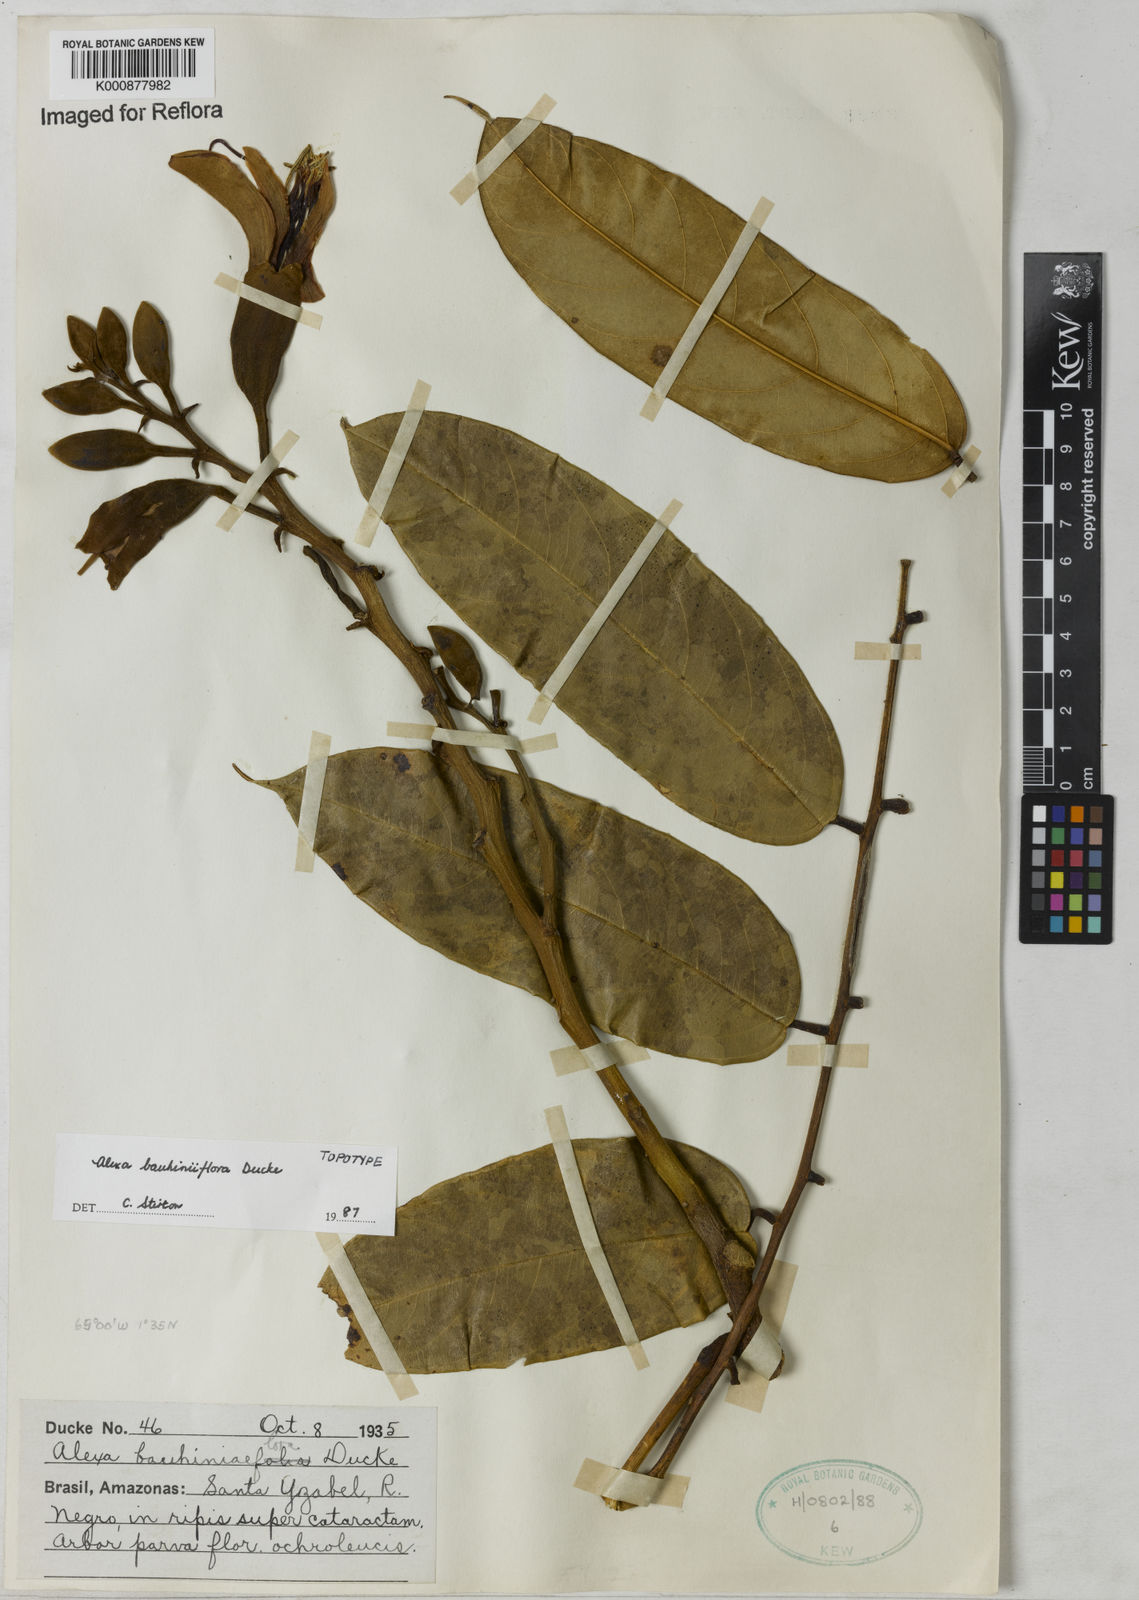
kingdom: Plantae
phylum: Tracheophyta
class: Magnoliopsida
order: Fabales
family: Fabaceae
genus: Alexa
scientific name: Alexa bauhiniiflora
